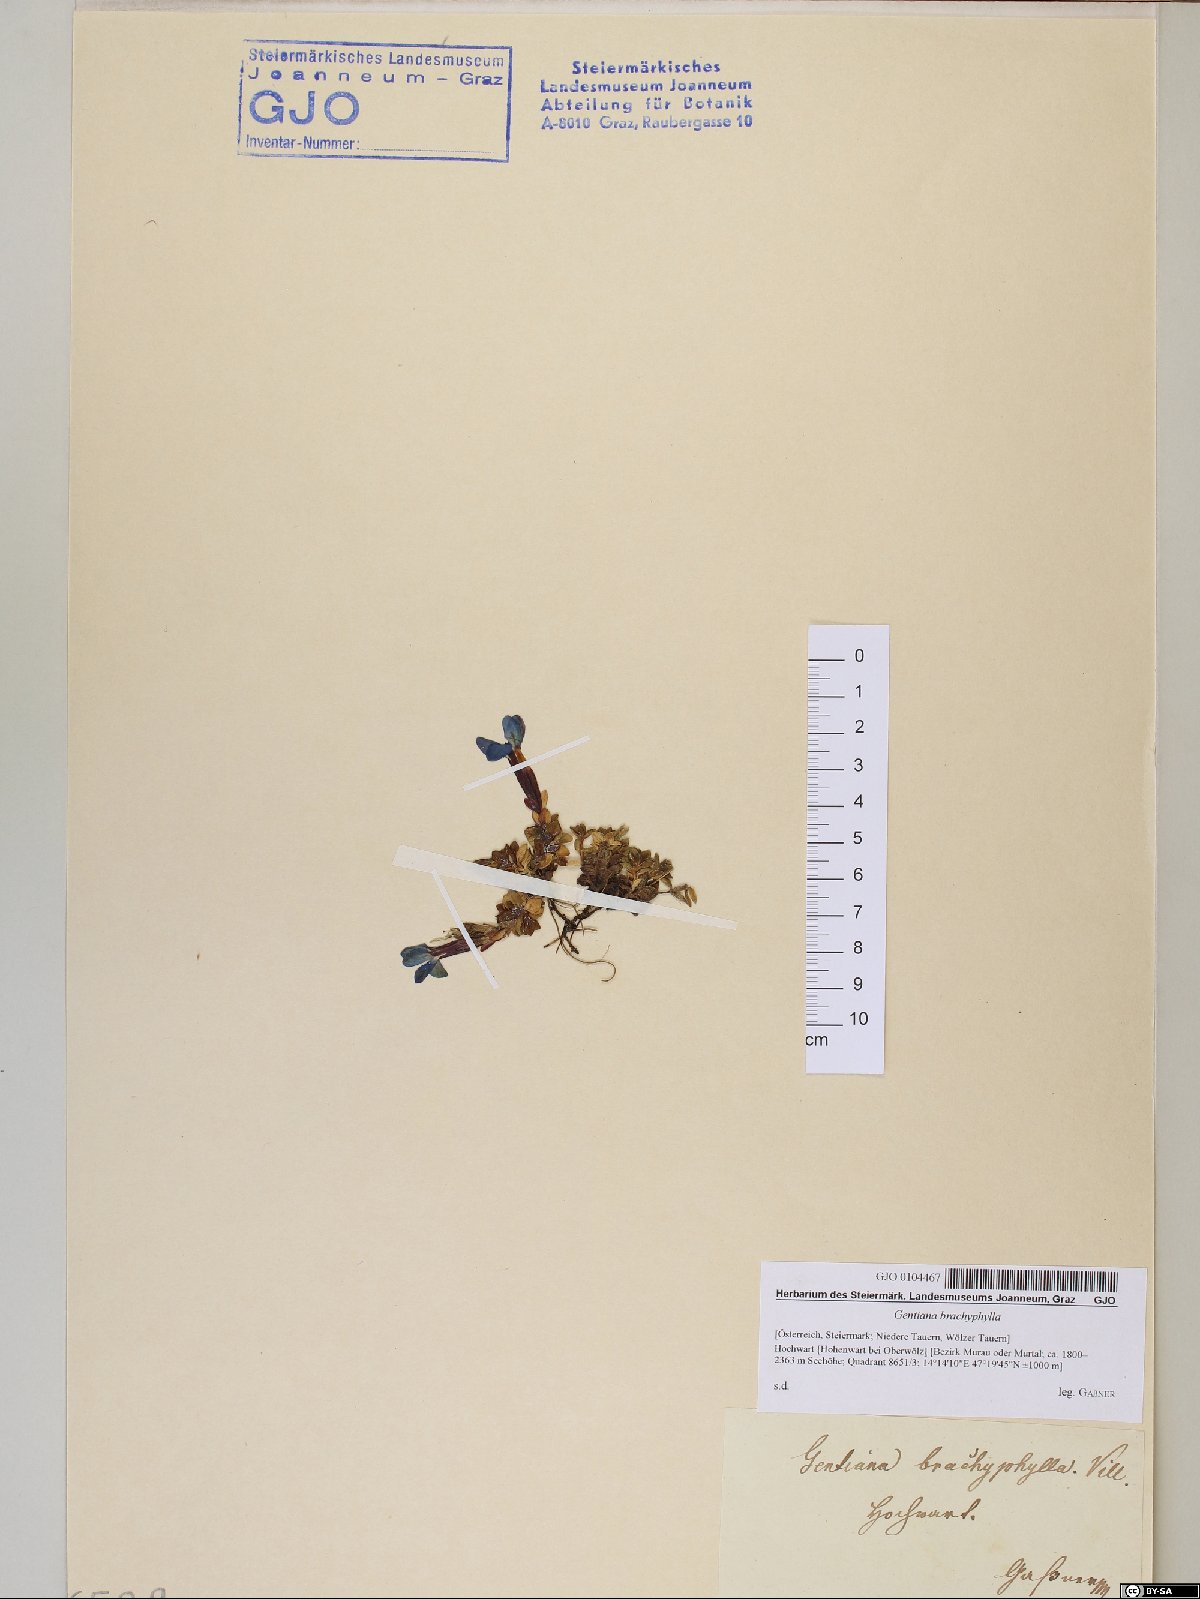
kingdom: Plantae
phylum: Tracheophyta
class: Magnoliopsida
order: Gentianales
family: Gentianaceae
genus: Gentiana
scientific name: Gentiana brachyphylla
